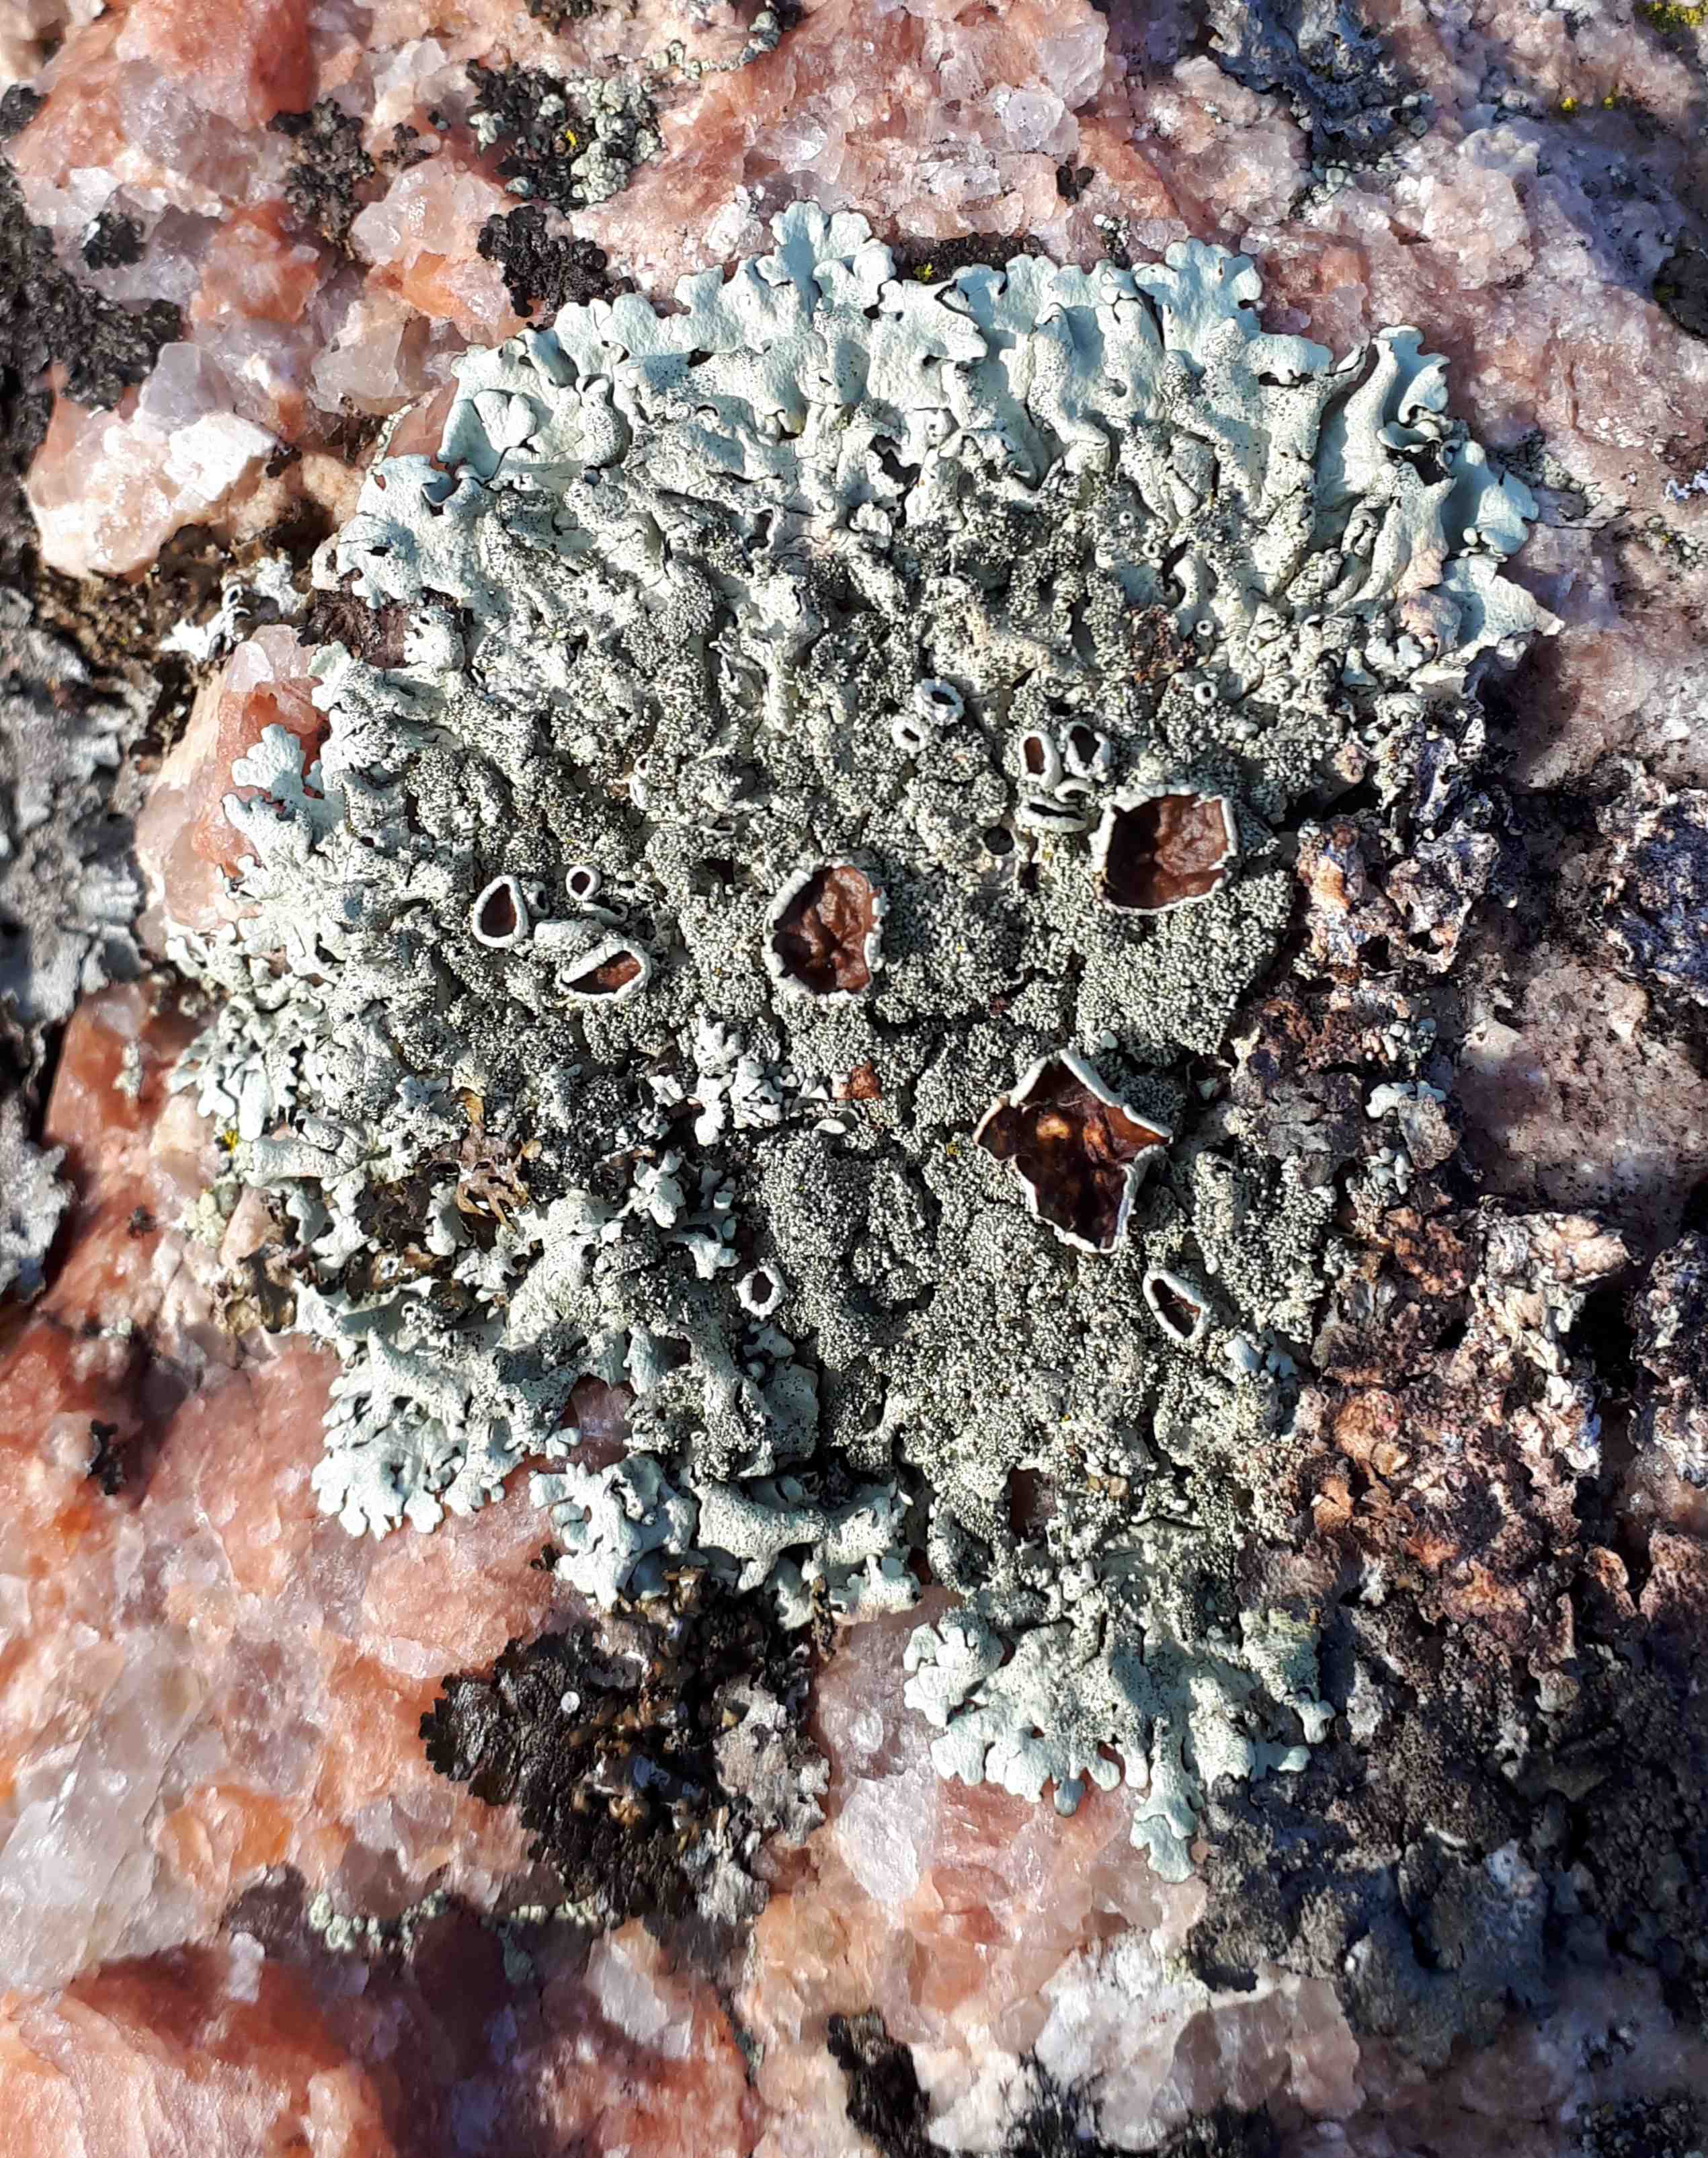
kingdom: Fungi
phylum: Ascomycota
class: Lecanoromycetes
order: Lecanorales
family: Parmeliaceae
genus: Xanthoparmelia
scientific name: Xanthoparmelia conspersa
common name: messing-skållav
